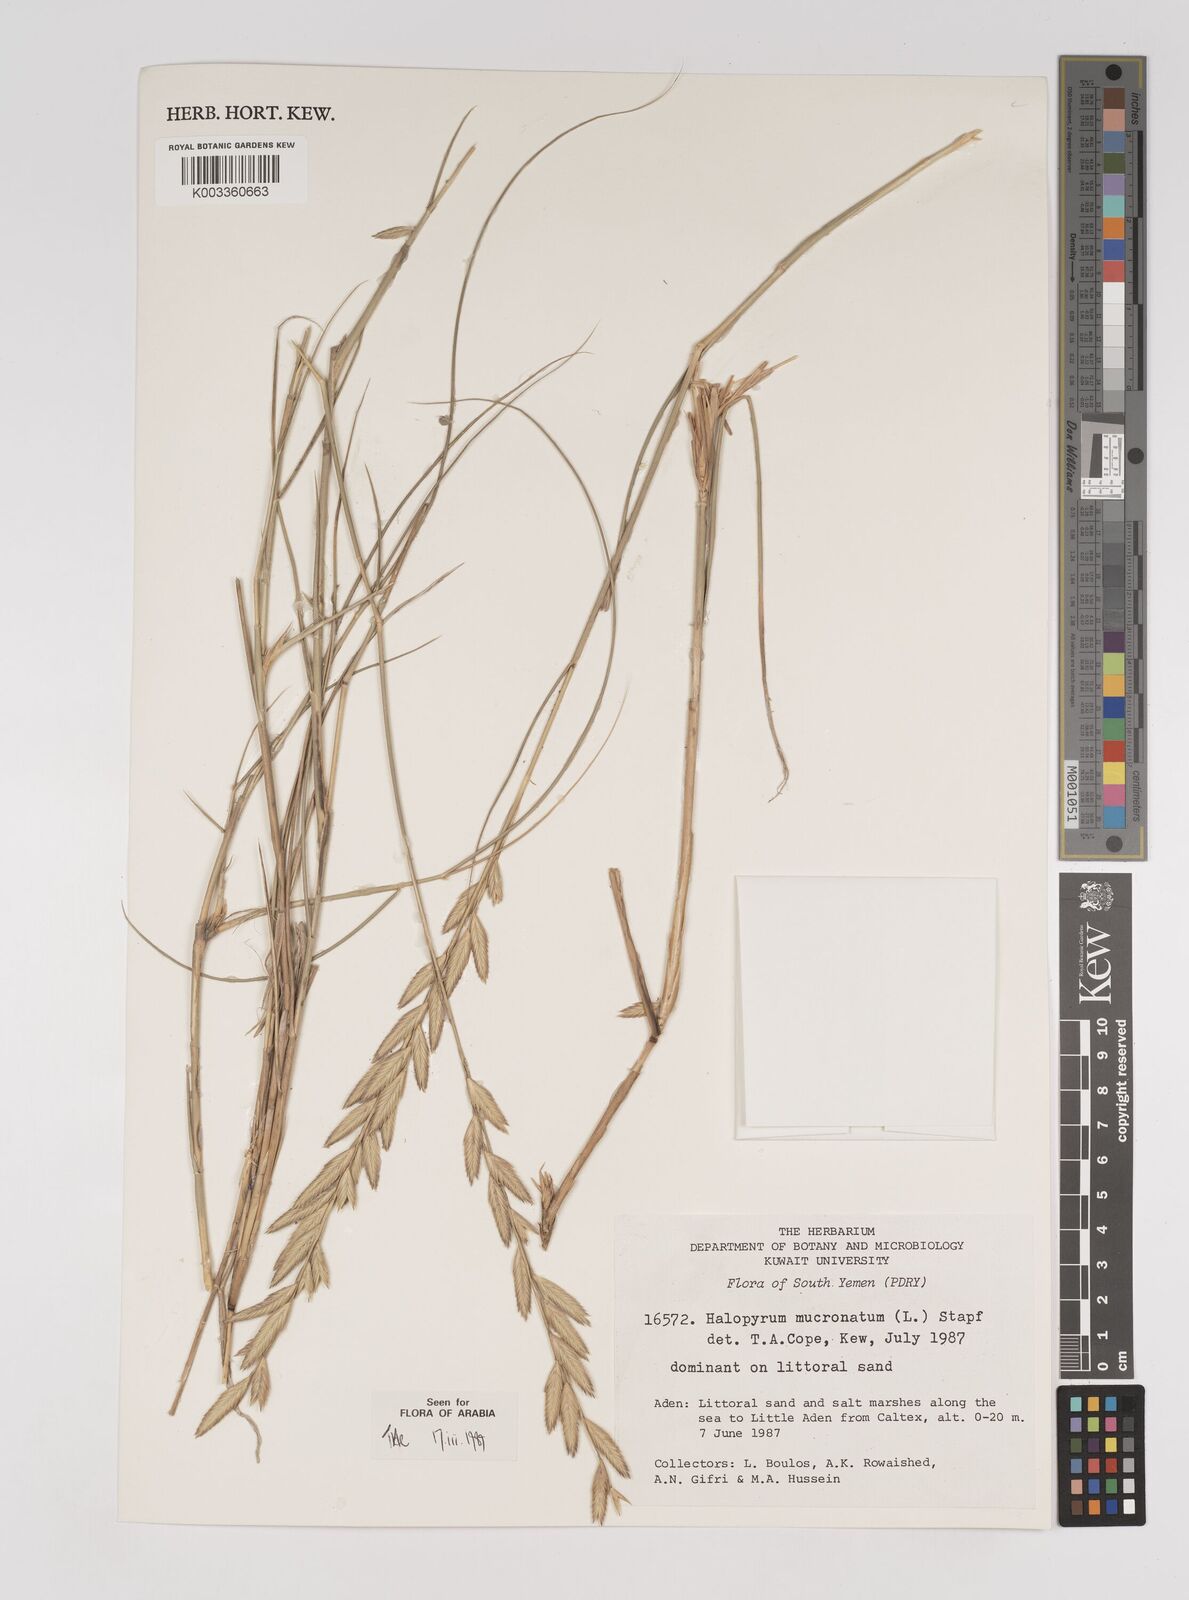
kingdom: Plantae
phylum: Tracheophyta
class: Liliopsida
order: Poales
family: Poaceae
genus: Halopyrum
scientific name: Halopyrum mucronatum
